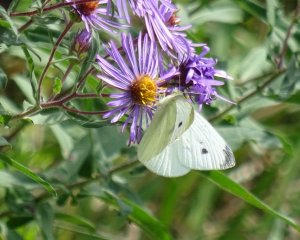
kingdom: Animalia
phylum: Arthropoda
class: Insecta
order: Lepidoptera
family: Pieridae
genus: Pieris
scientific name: Pieris rapae
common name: Cabbage White
